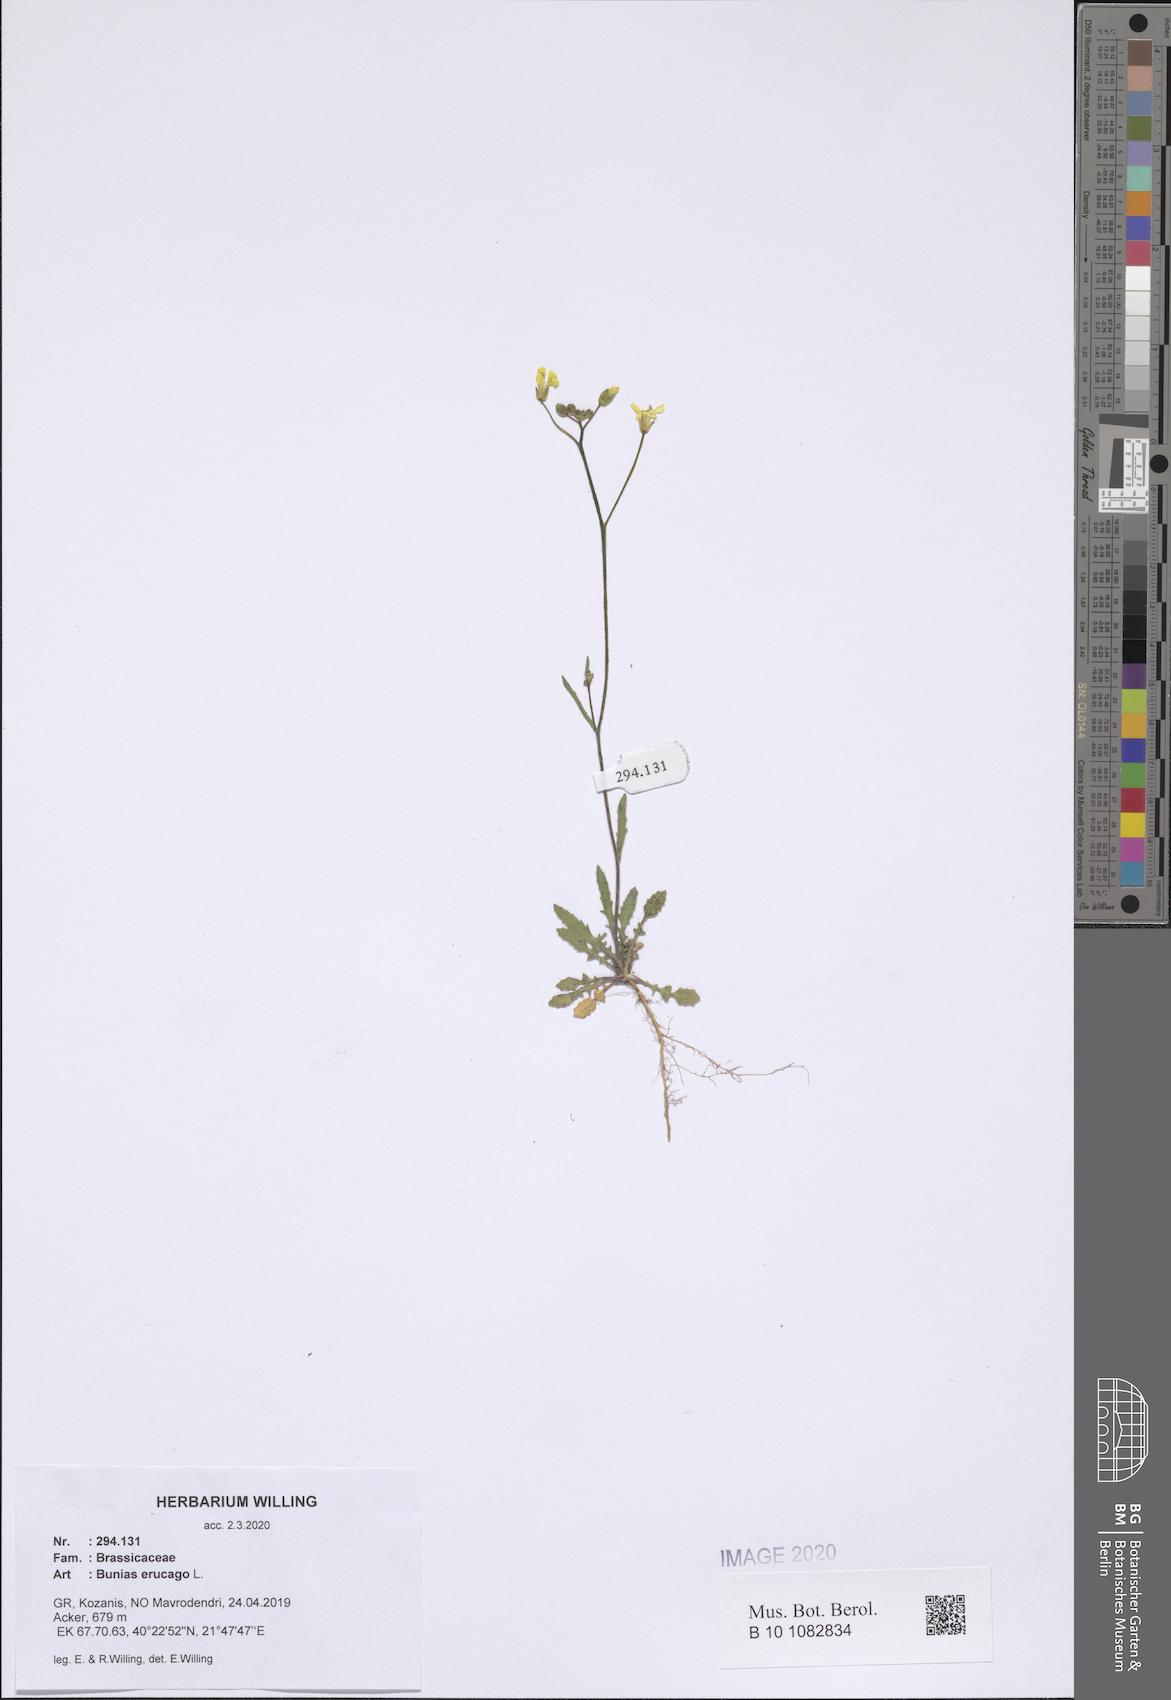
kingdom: Plantae
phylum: Tracheophyta
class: Magnoliopsida
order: Brassicales
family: Brassicaceae
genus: Bunias
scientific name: Bunias erucago
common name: Southern warty-cabbage
